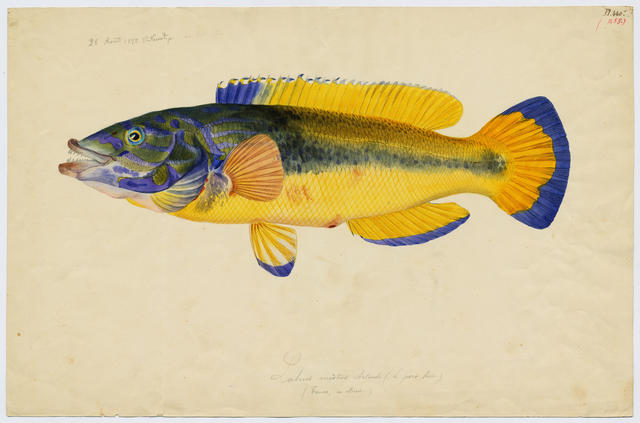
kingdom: Animalia
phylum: Chordata
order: Perciformes
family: Cichlidae
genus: Cichlasoma
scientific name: Cichlasoma bimaculatum
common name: Black acara
